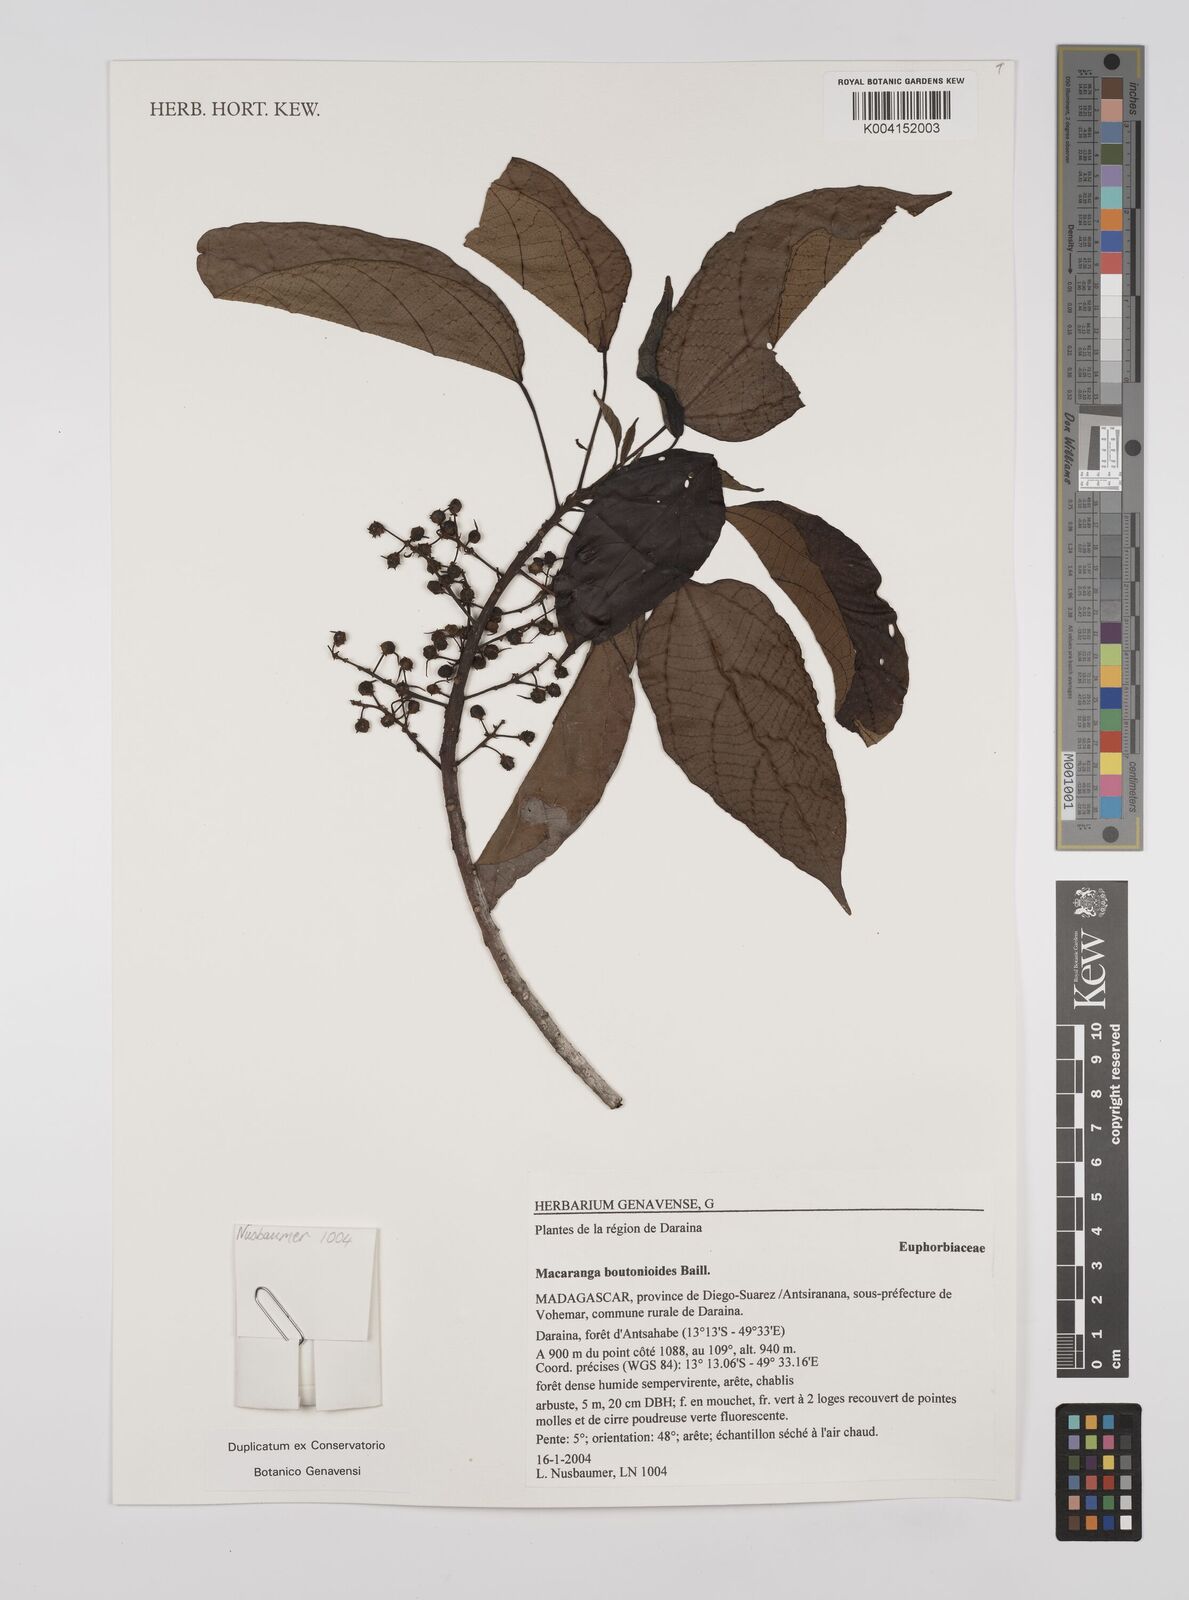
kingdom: Plantae
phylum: Tracheophyta
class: Magnoliopsida
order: Malpighiales
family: Euphorbiaceae
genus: Macaranga
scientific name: Macaranga
